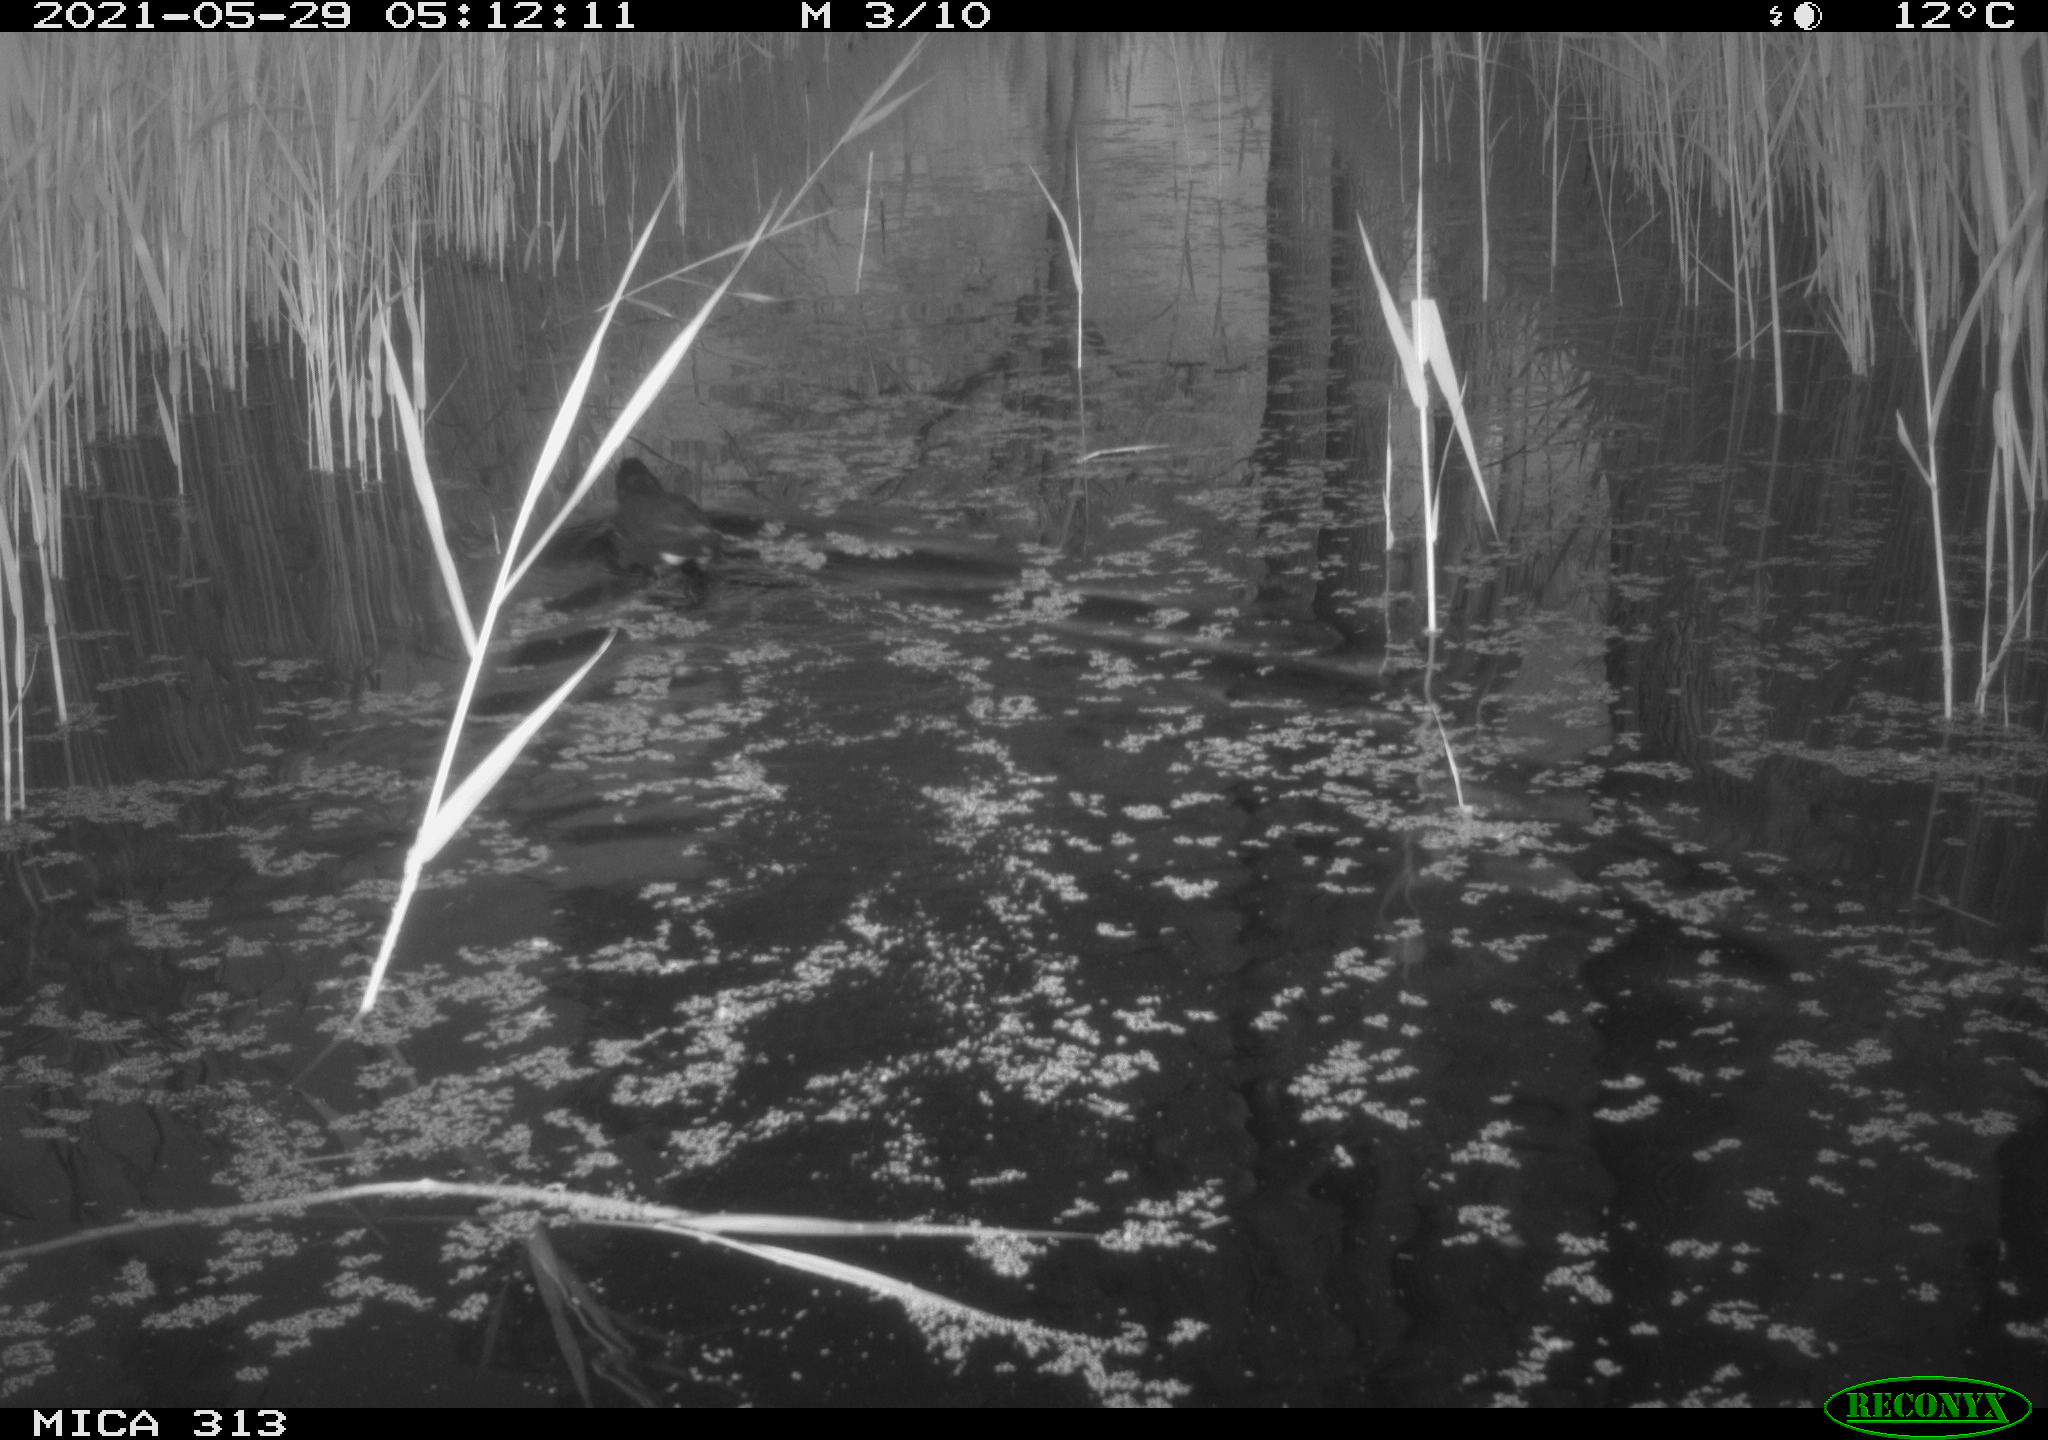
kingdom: Animalia
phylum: Chordata
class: Aves
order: Gruiformes
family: Rallidae
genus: Gallinula
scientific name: Gallinula chloropus
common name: Common moorhen
